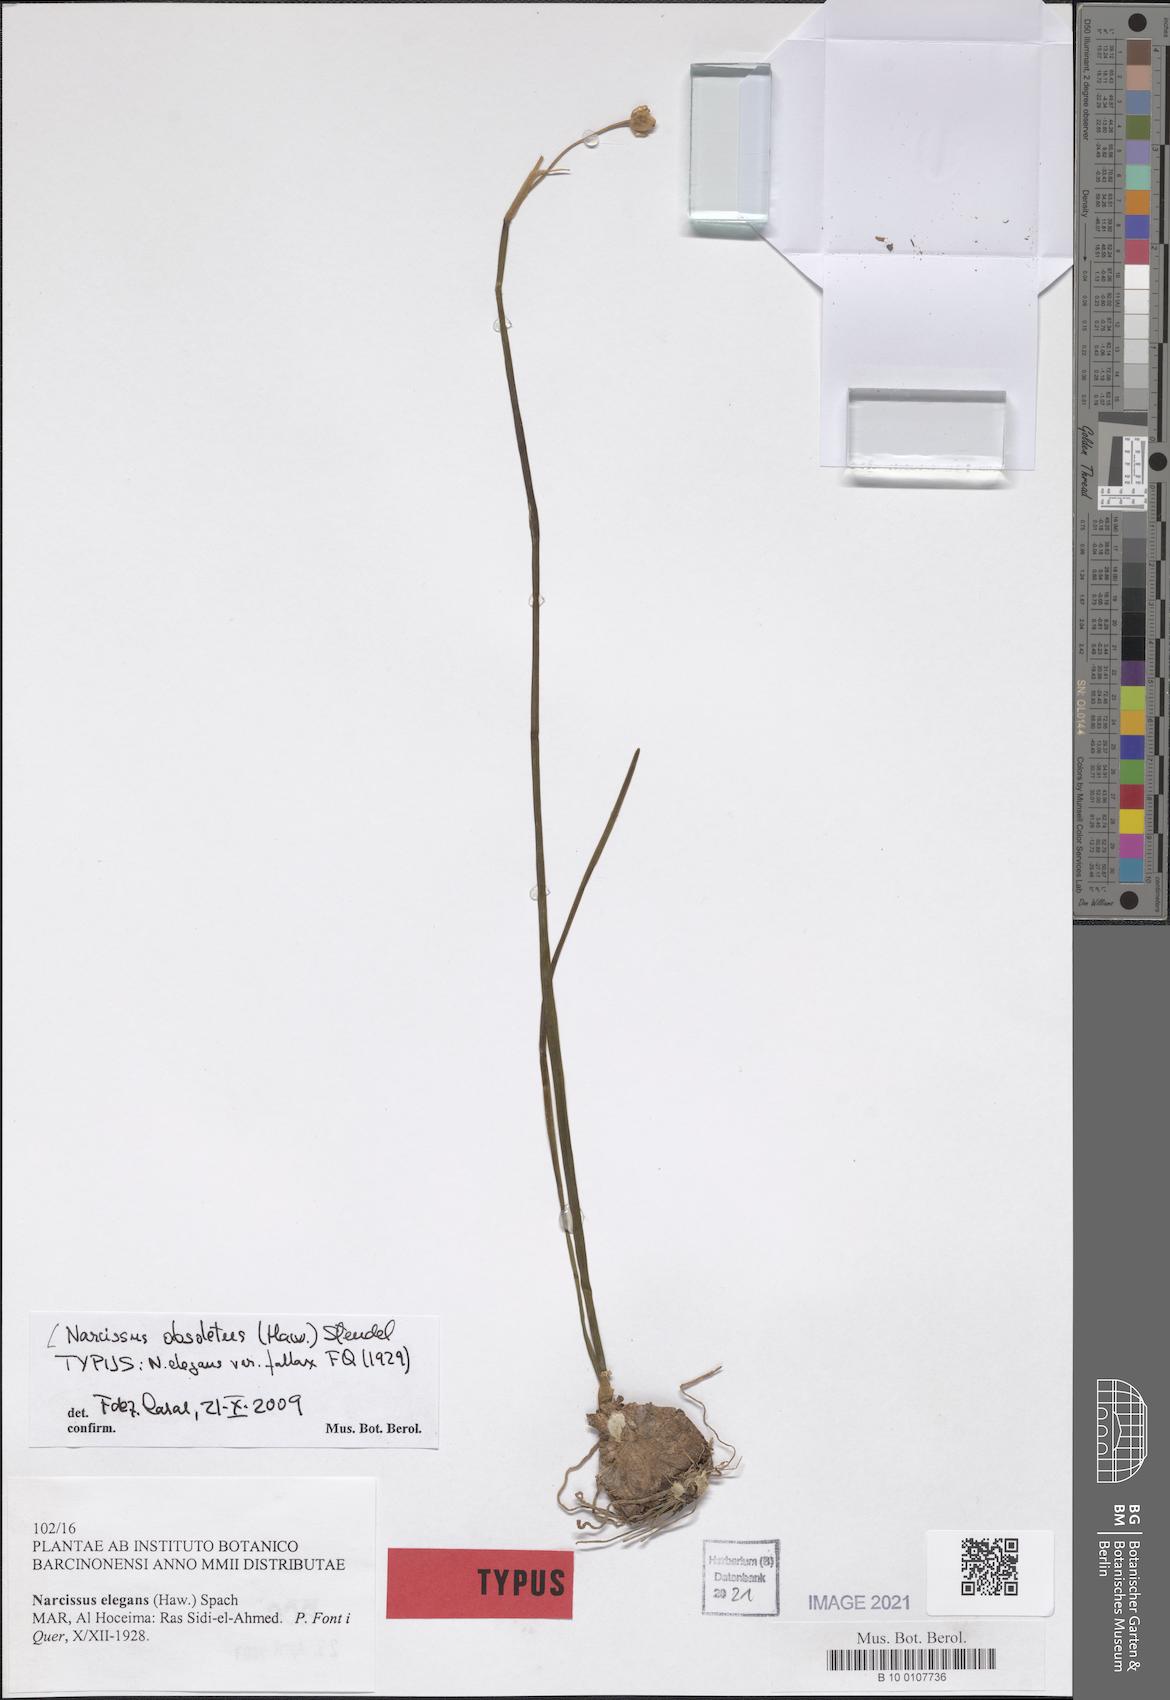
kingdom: Plantae
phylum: Tracheophyta
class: Liliopsida
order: Asparagales
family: Amaryllidaceae
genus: Narcissus
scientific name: Narcissus obsoletus
